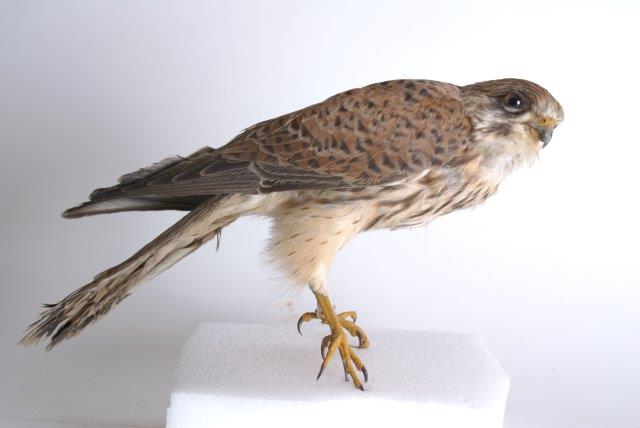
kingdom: Animalia
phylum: Chordata
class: Aves
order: Falconiformes
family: Falconidae
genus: Falco
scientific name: Falco tinnunculus
